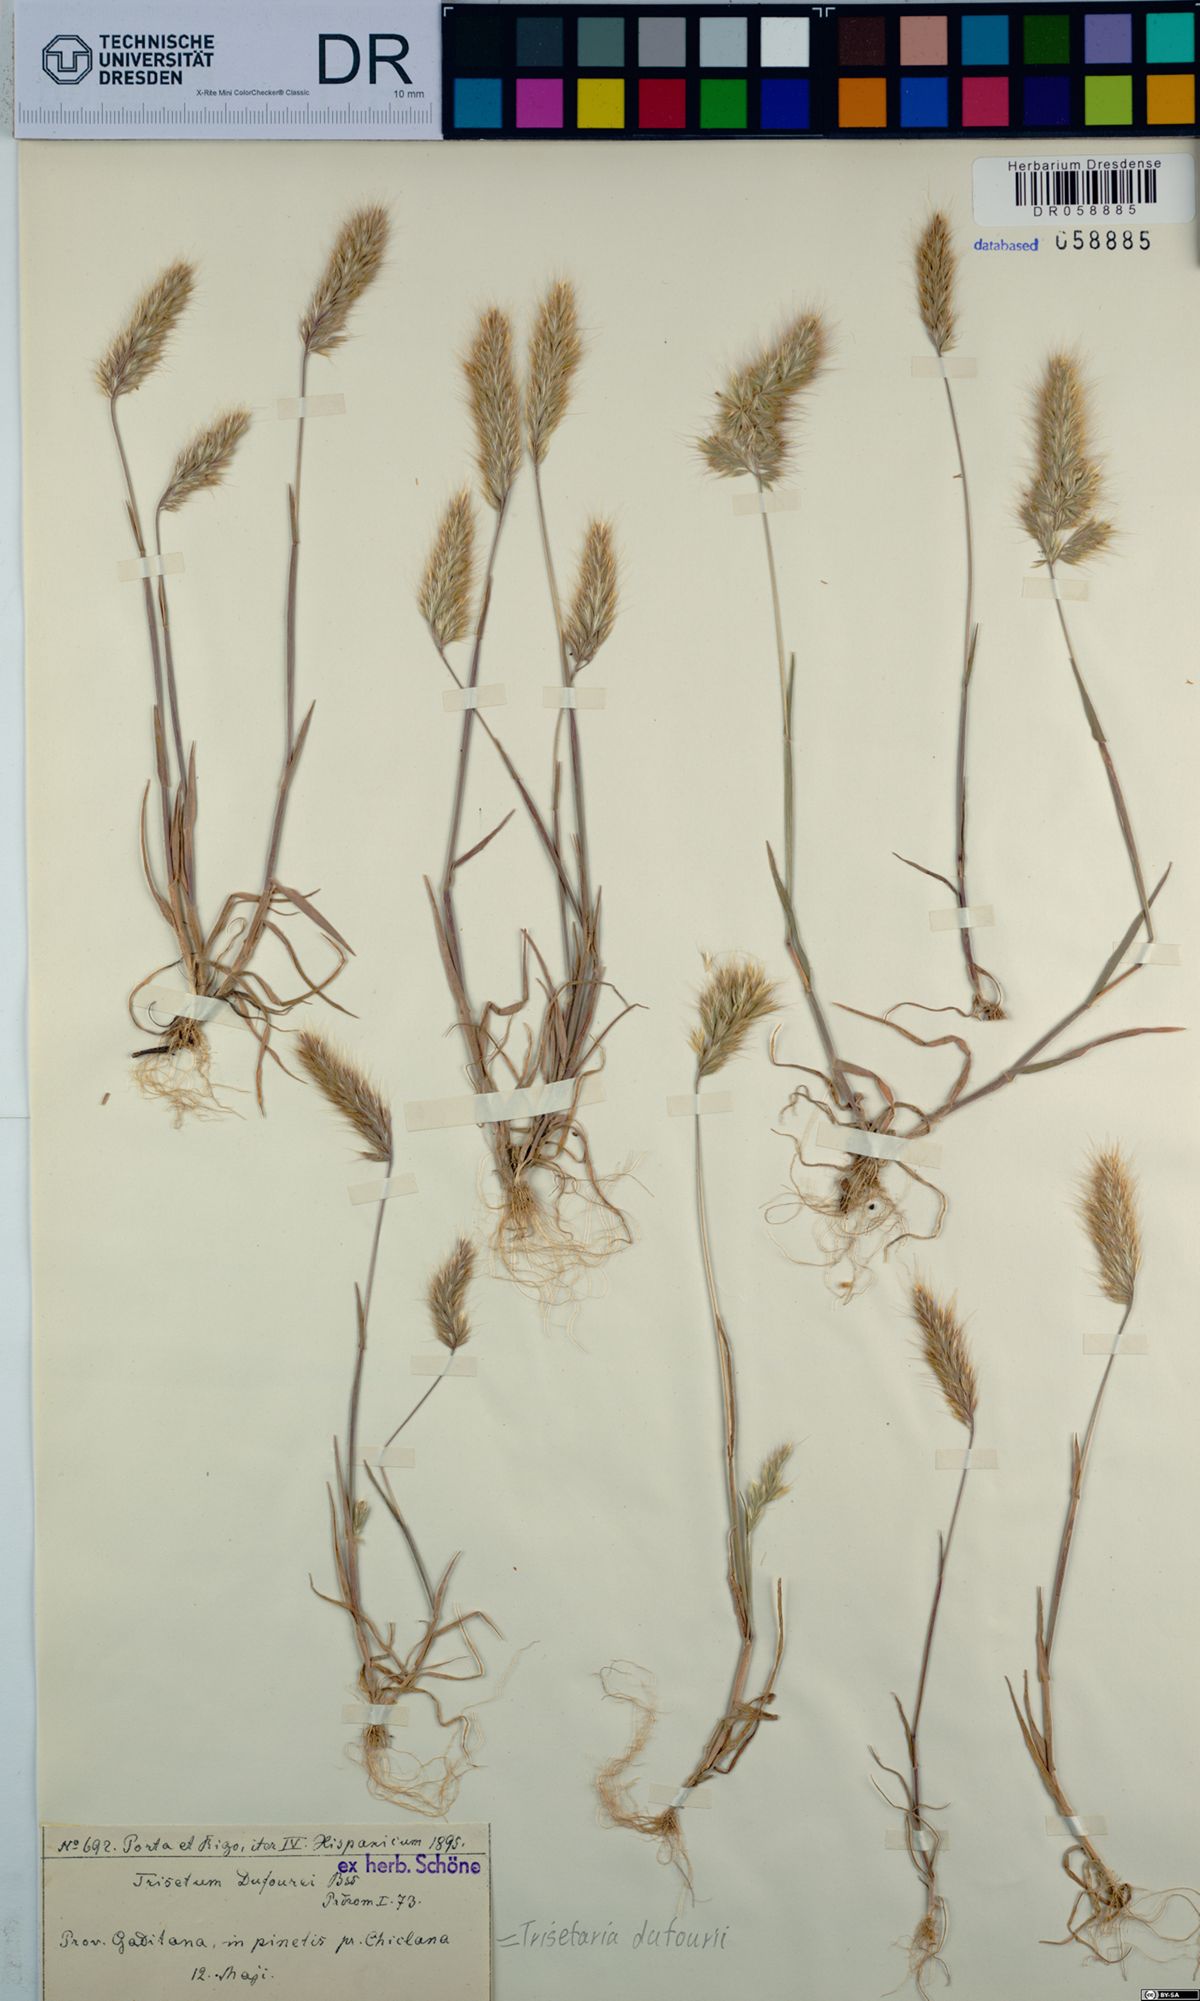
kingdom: Plantae
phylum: Tracheophyta
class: Liliopsida
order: Poales
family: Poaceae
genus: Trisetaria
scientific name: Trisetaria dufourei
